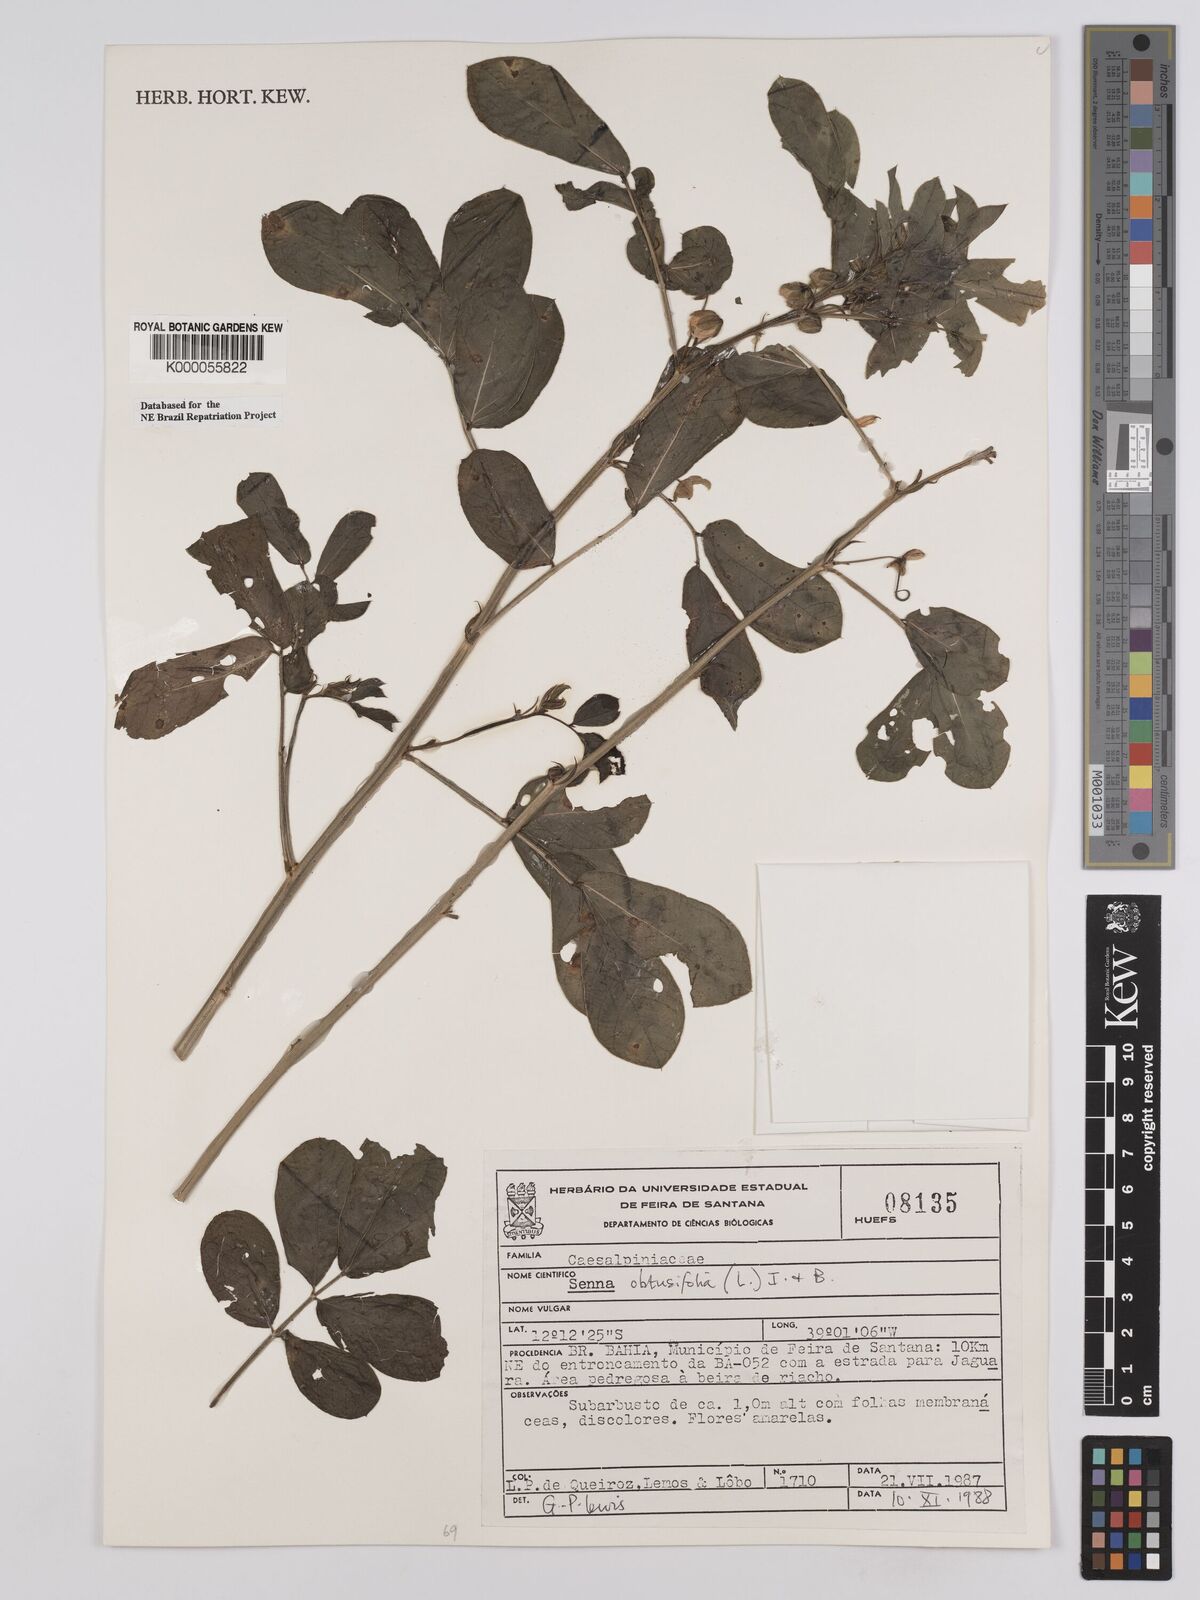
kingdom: Plantae
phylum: Tracheophyta
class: Magnoliopsida
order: Fabales
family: Fabaceae
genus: Senna
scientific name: Senna obtusifolia
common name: Java-bean
